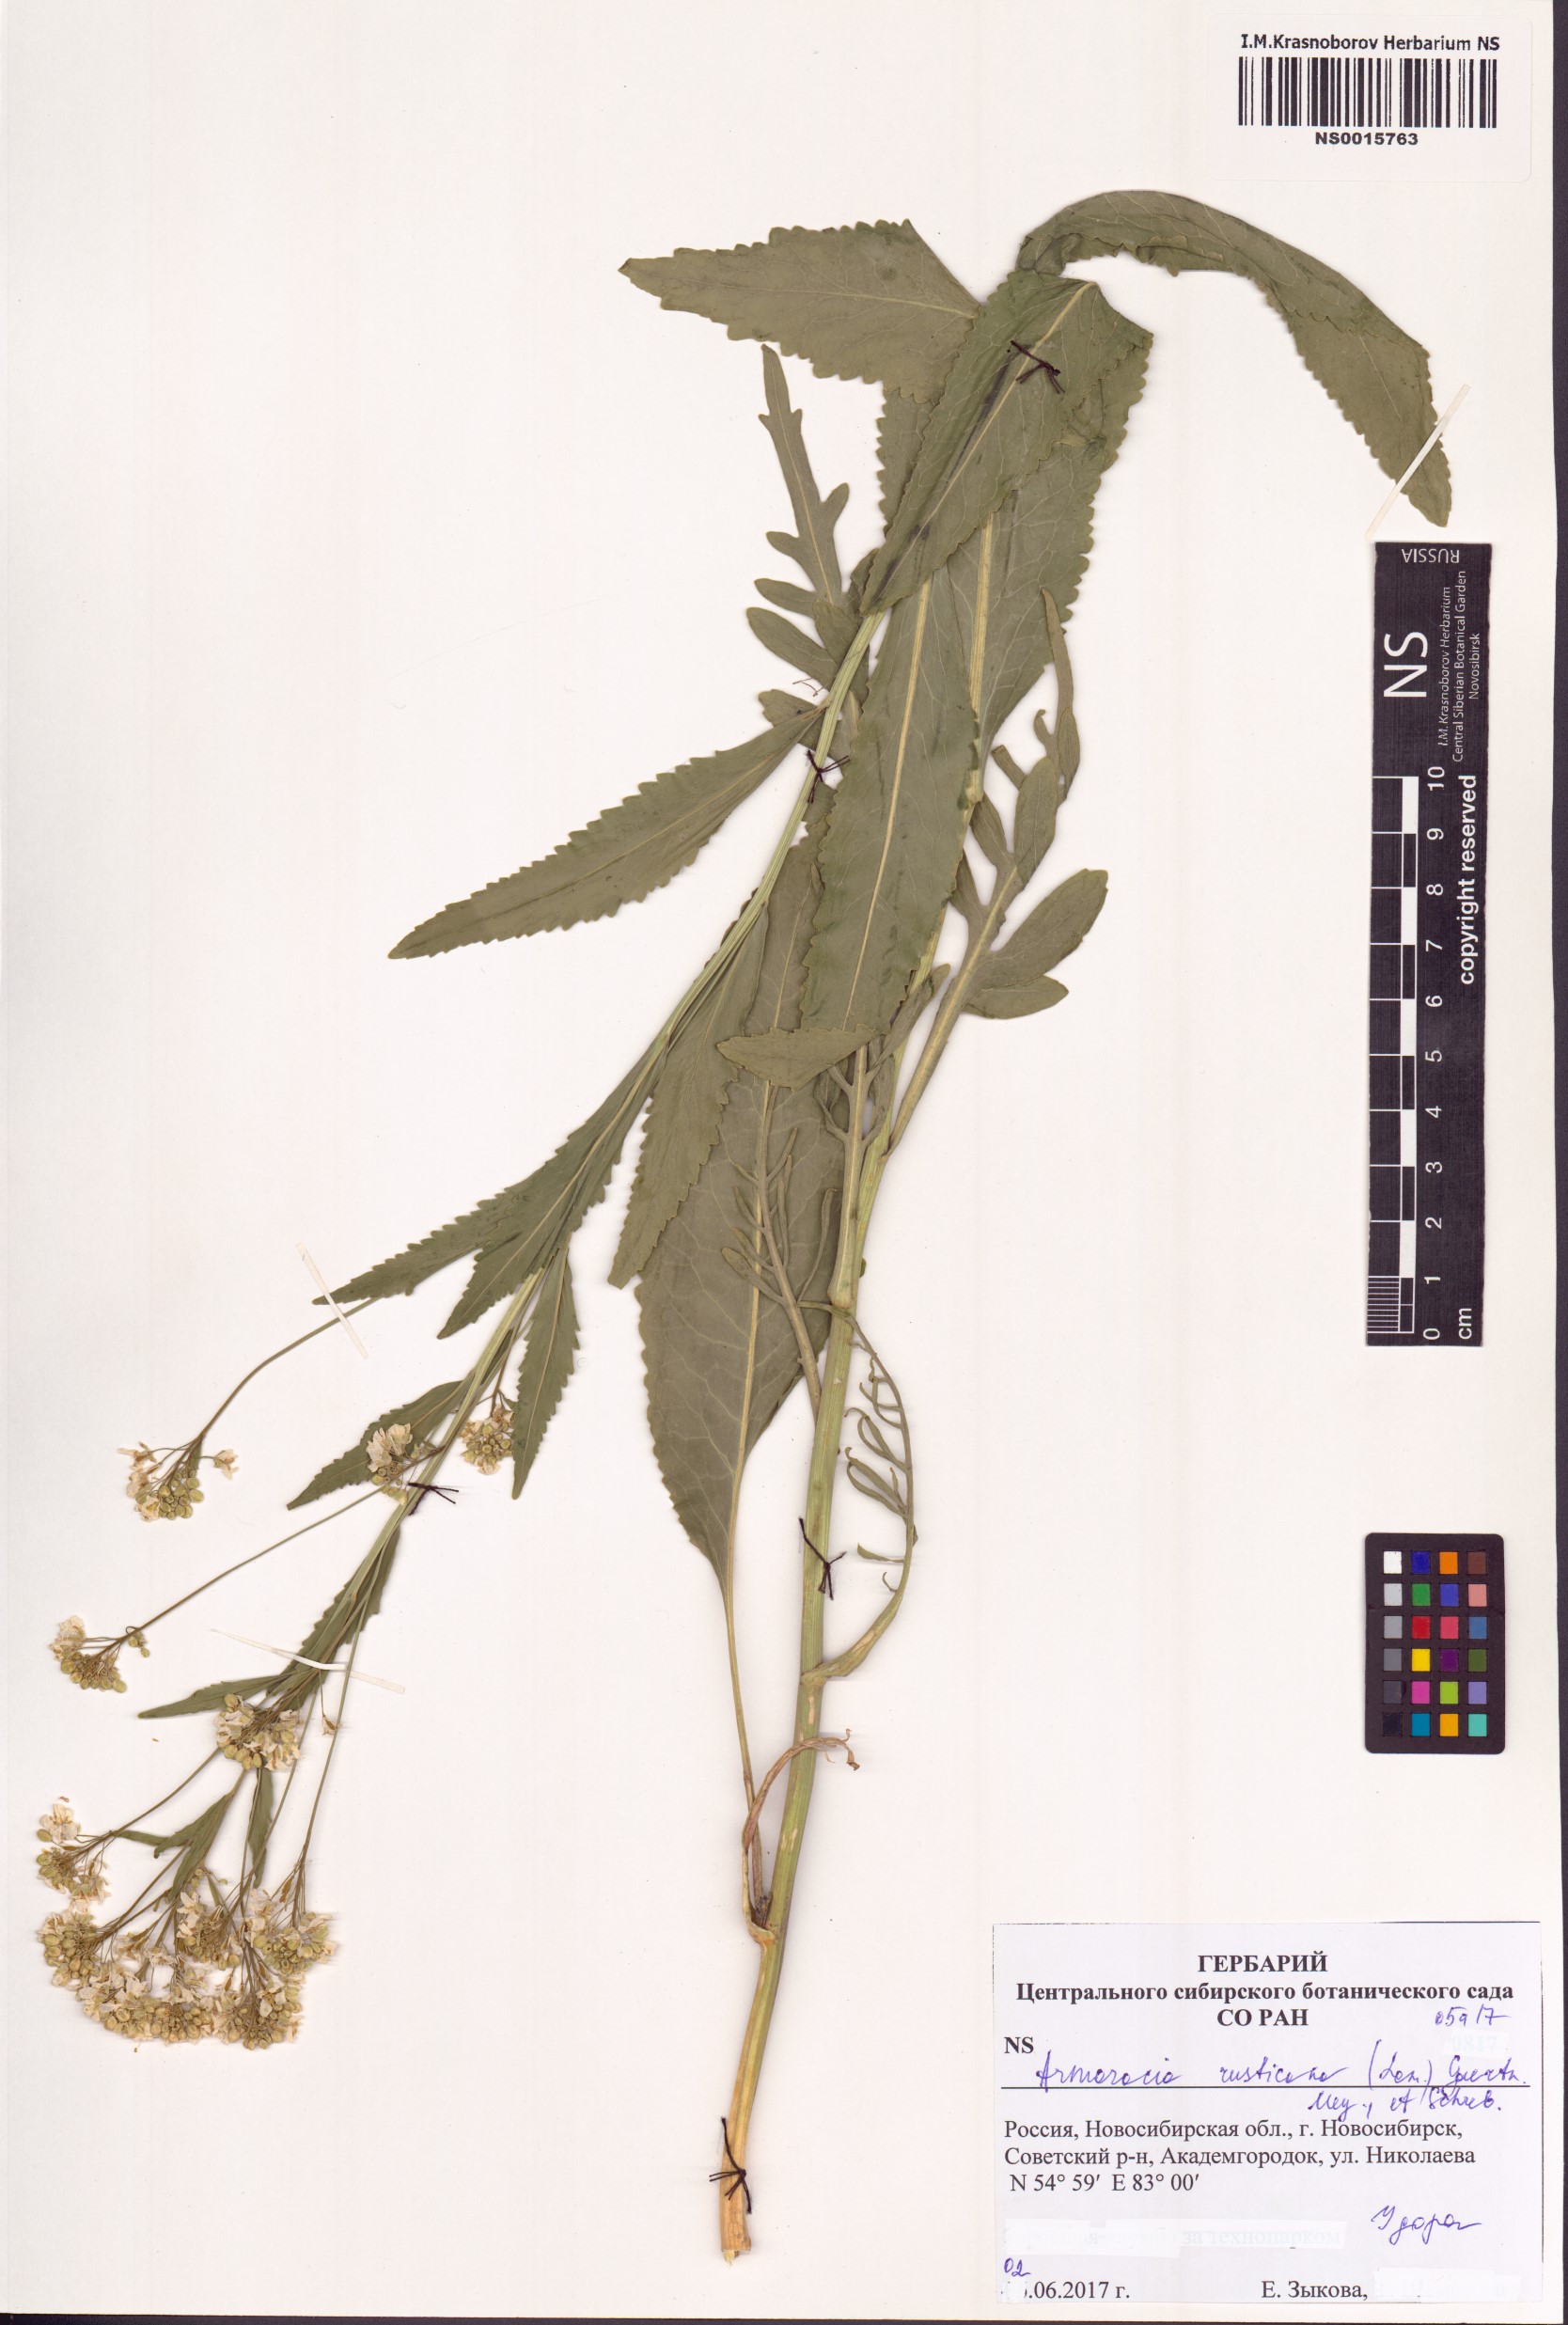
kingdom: Plantae
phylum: Tracheophyta
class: Magnoliopsida
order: Brassicales
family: Brassicaceae
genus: Armoracia
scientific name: Armoracia rusticana
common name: Horseradish
